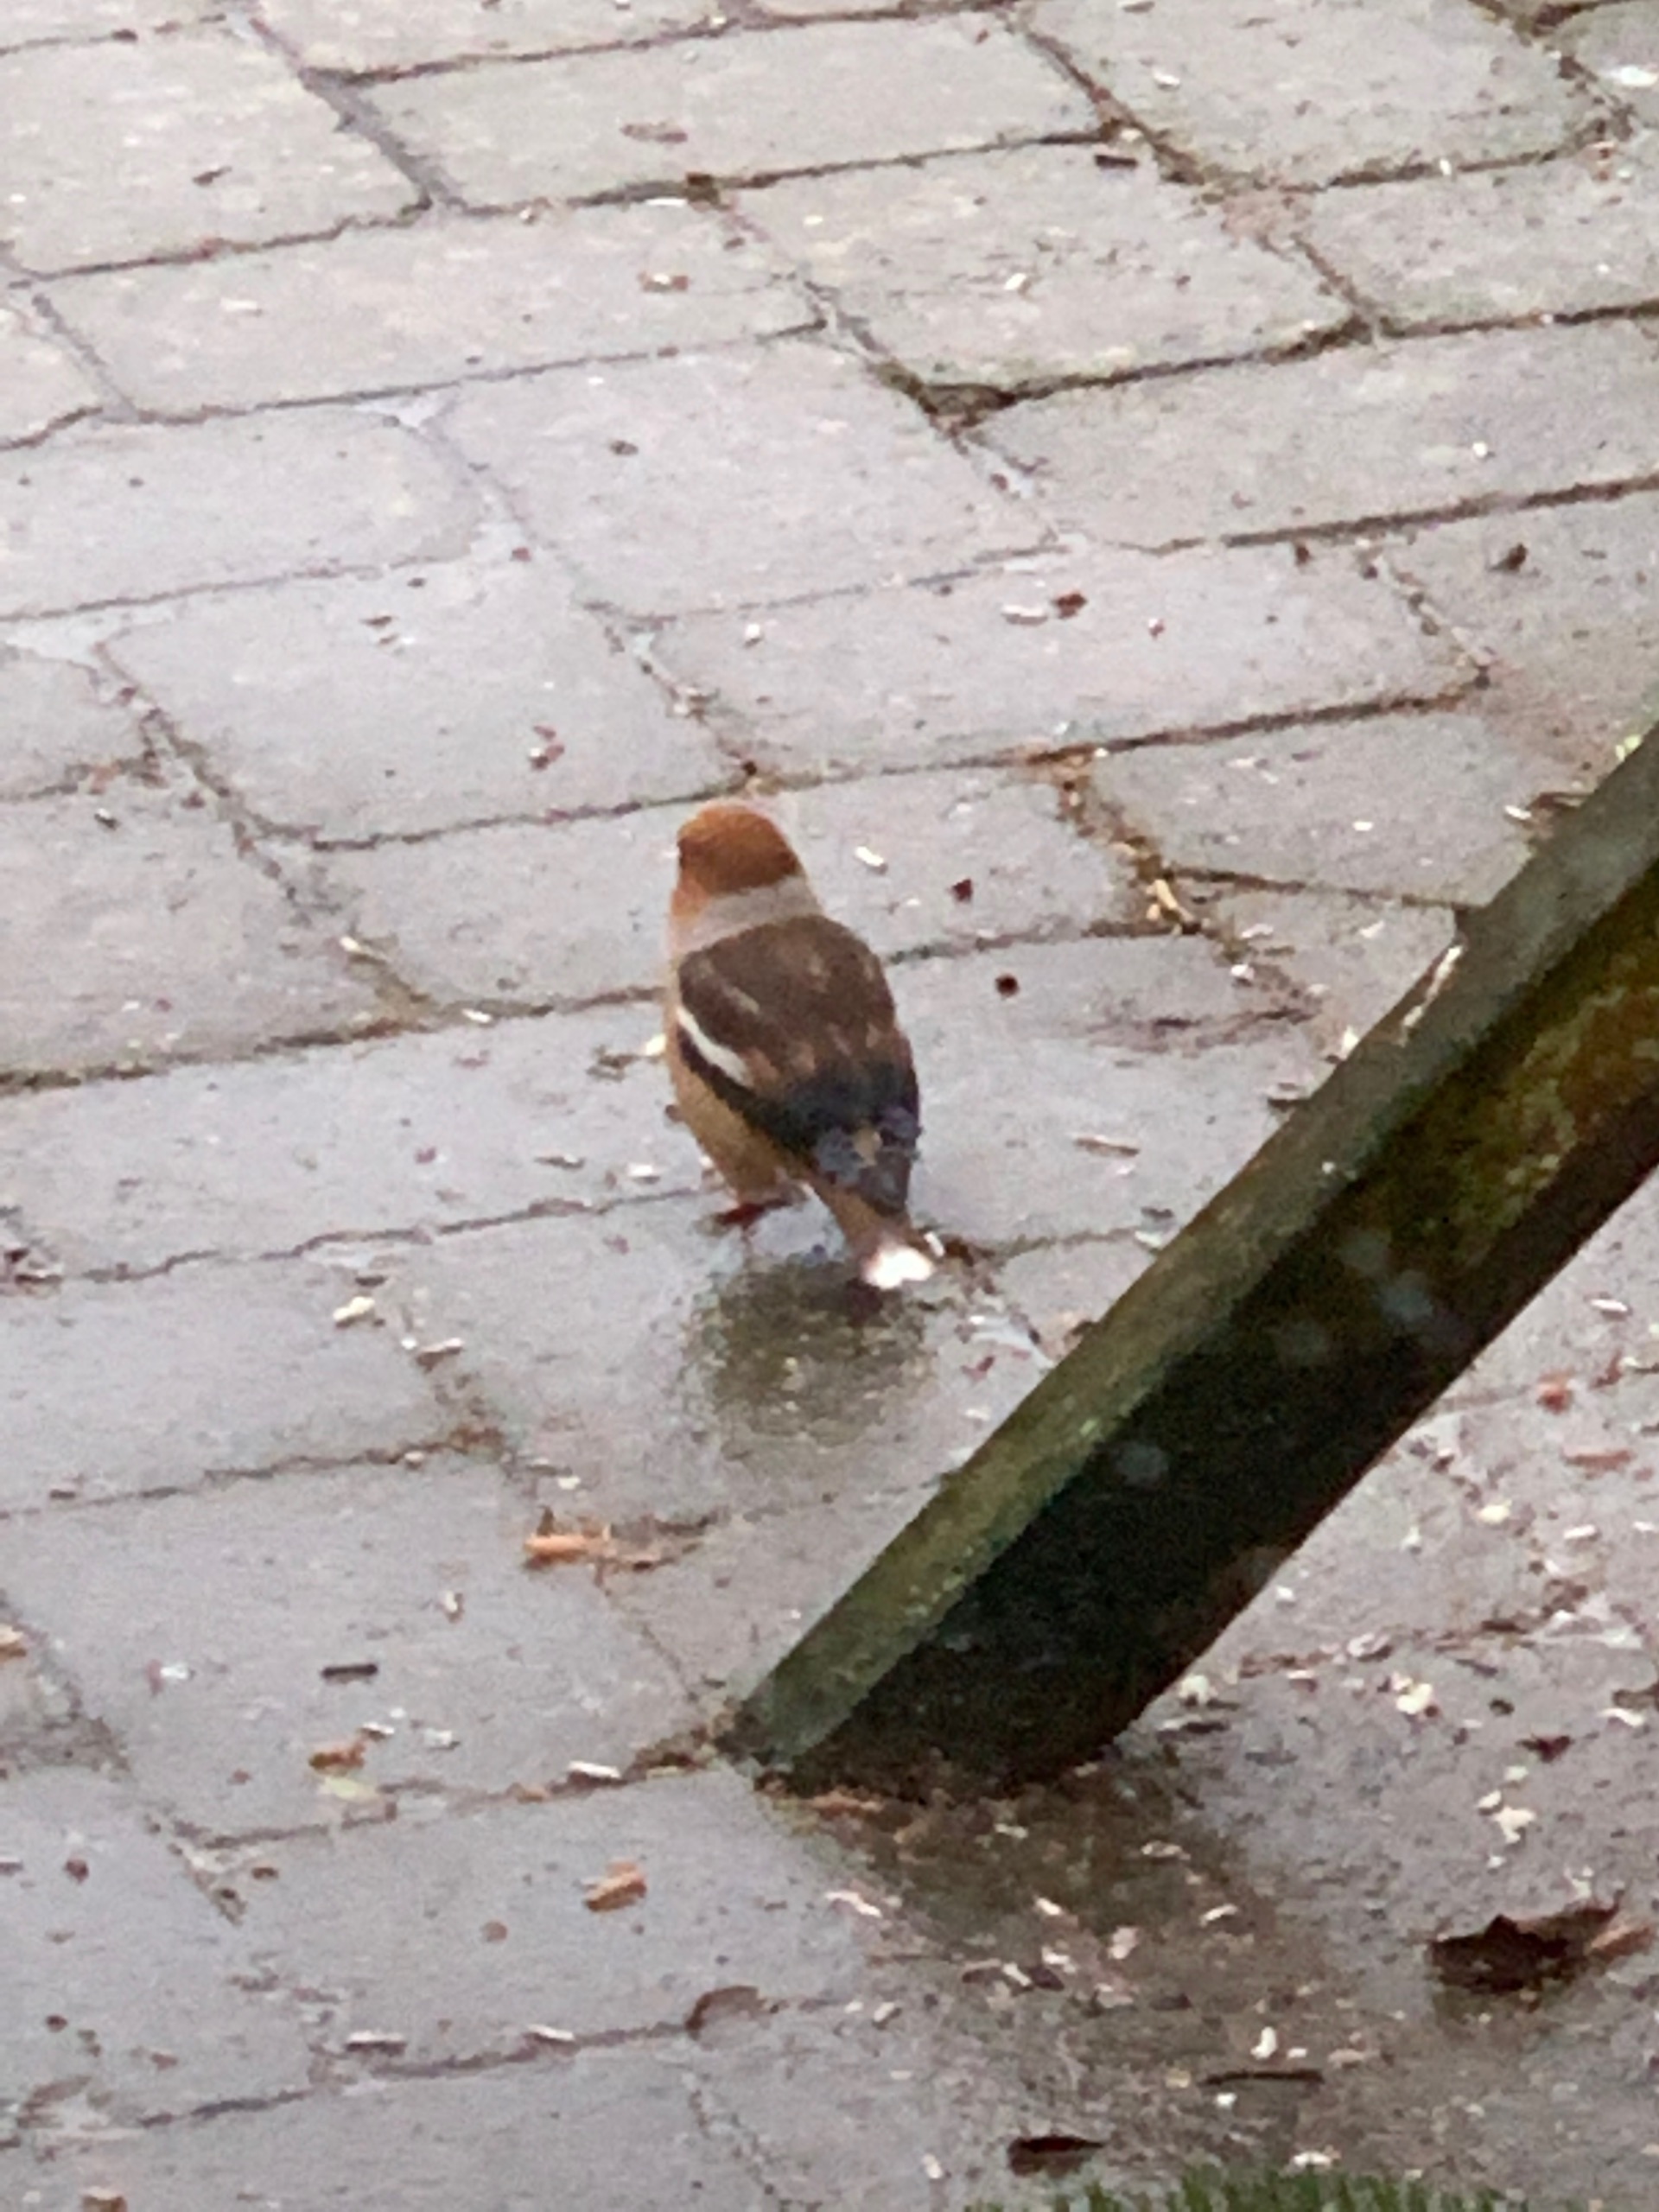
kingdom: Animalia
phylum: Chordata
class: Aves
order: Passeriformes
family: Fringillidae
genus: Coccothraustes
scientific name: Coccothraustes coccothraustes
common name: Kernebider
